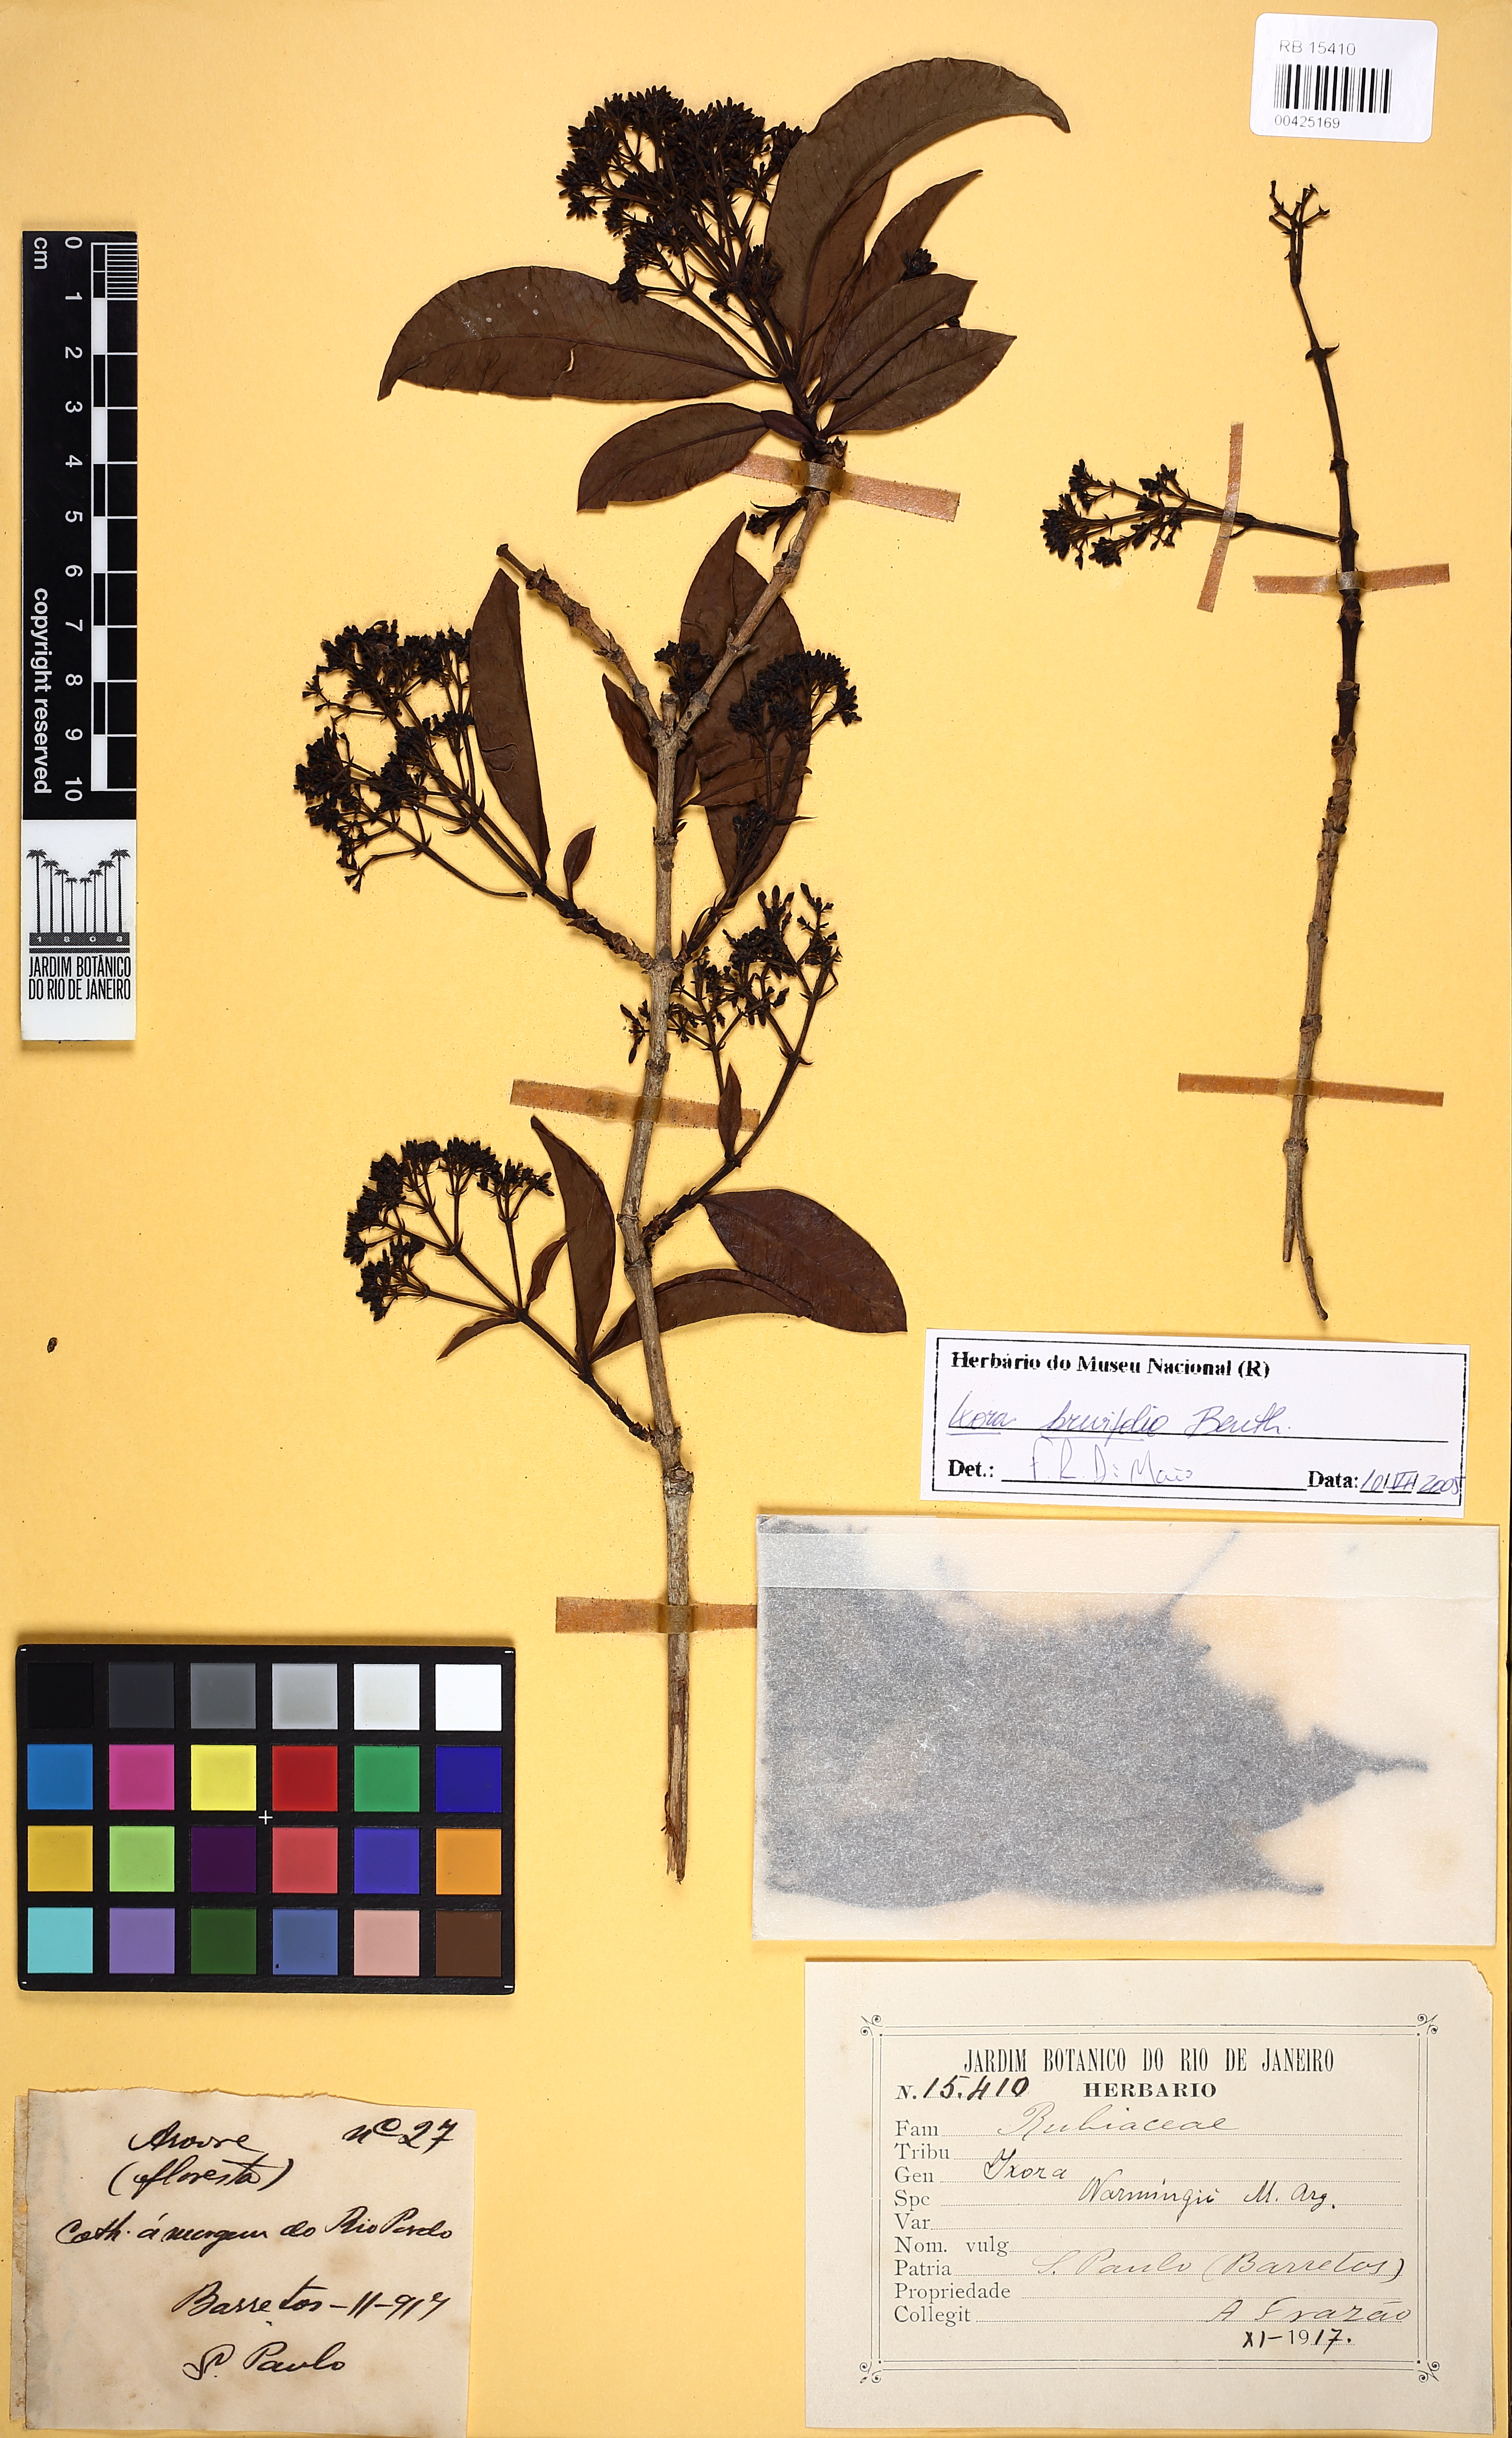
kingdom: Plantae
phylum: Tracheophyta
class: Magnoliopsida
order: Gentianales
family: Rubiaceae
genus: Ixora
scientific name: Ixora brevifolia
